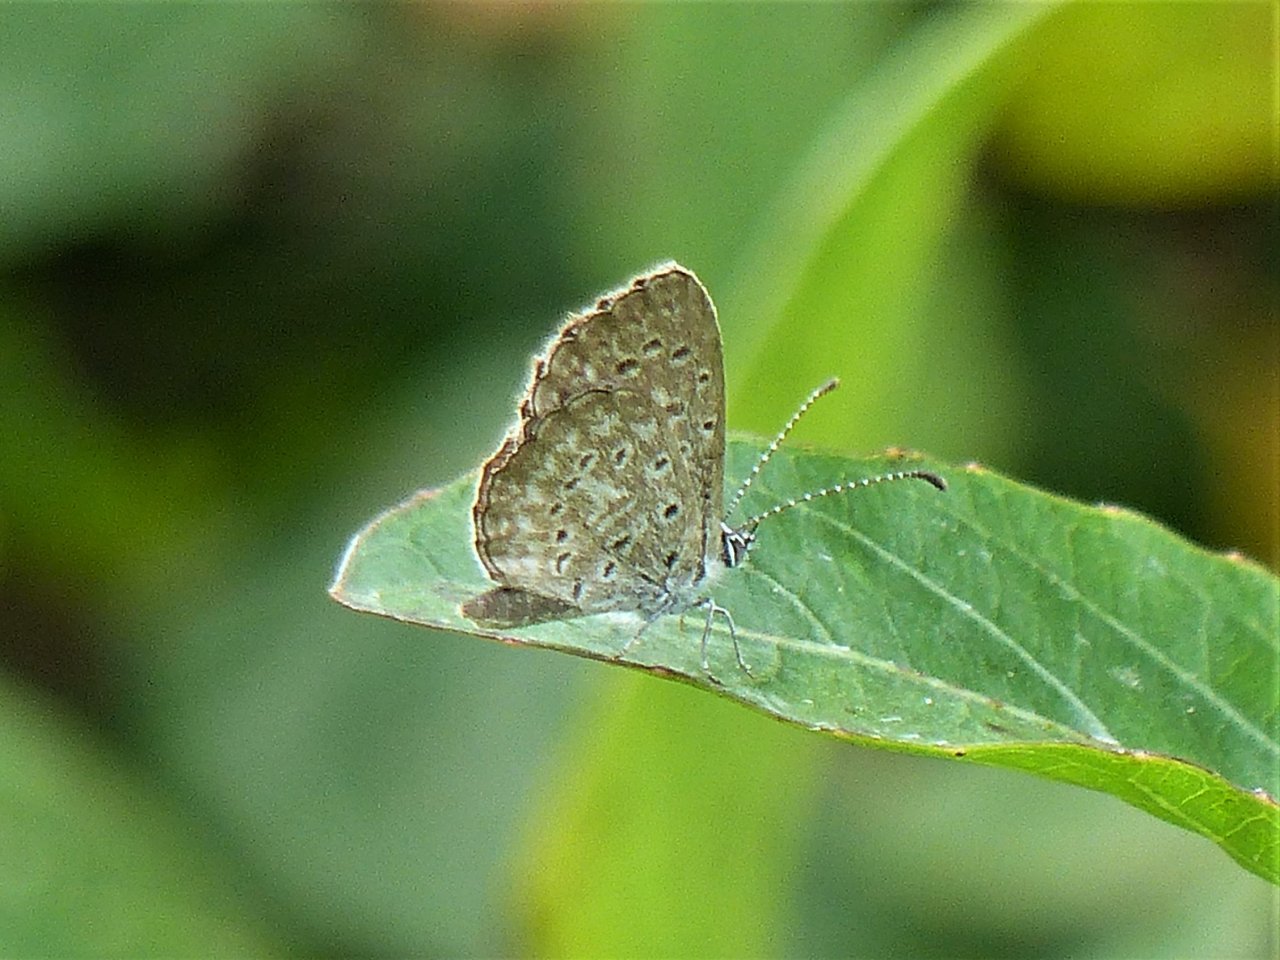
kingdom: Animalia
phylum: Arthropoda
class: Insecta
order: Lepidoptera
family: Lycaenidae
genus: Lycaena
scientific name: Lycaena cyna
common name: Cyna Blue
